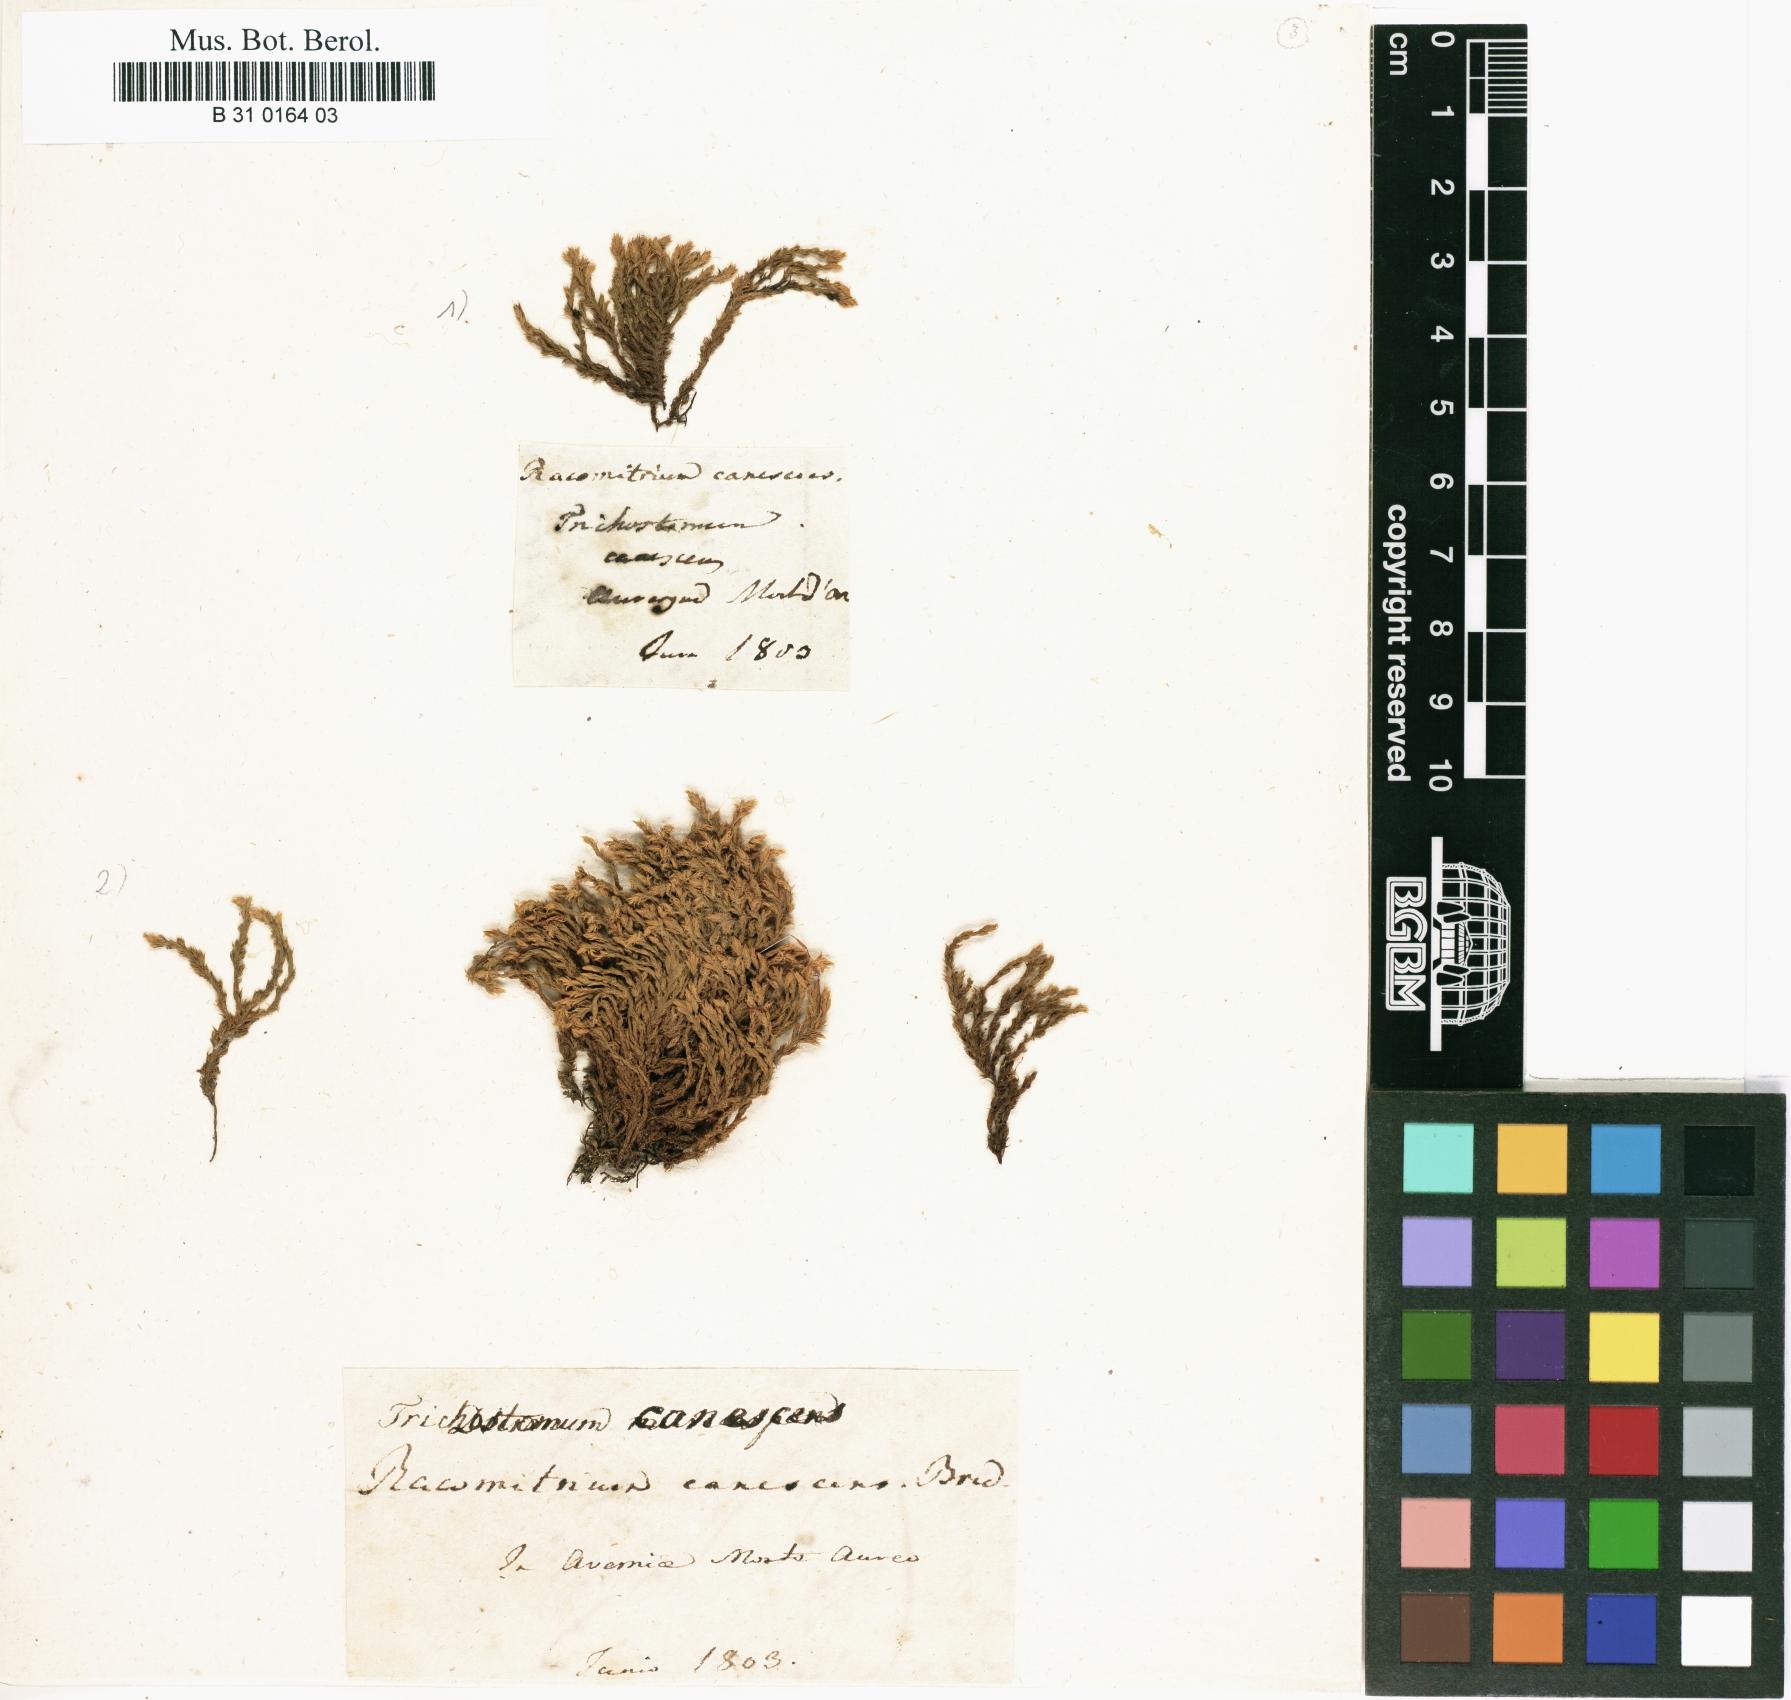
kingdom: Plantae
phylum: Bryophyta
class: Bryopsida
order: Grimmiales
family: Grimmiaceae
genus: Niphotrichum
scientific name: Niphotrichum canescens
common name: Hoary fringe-moss
